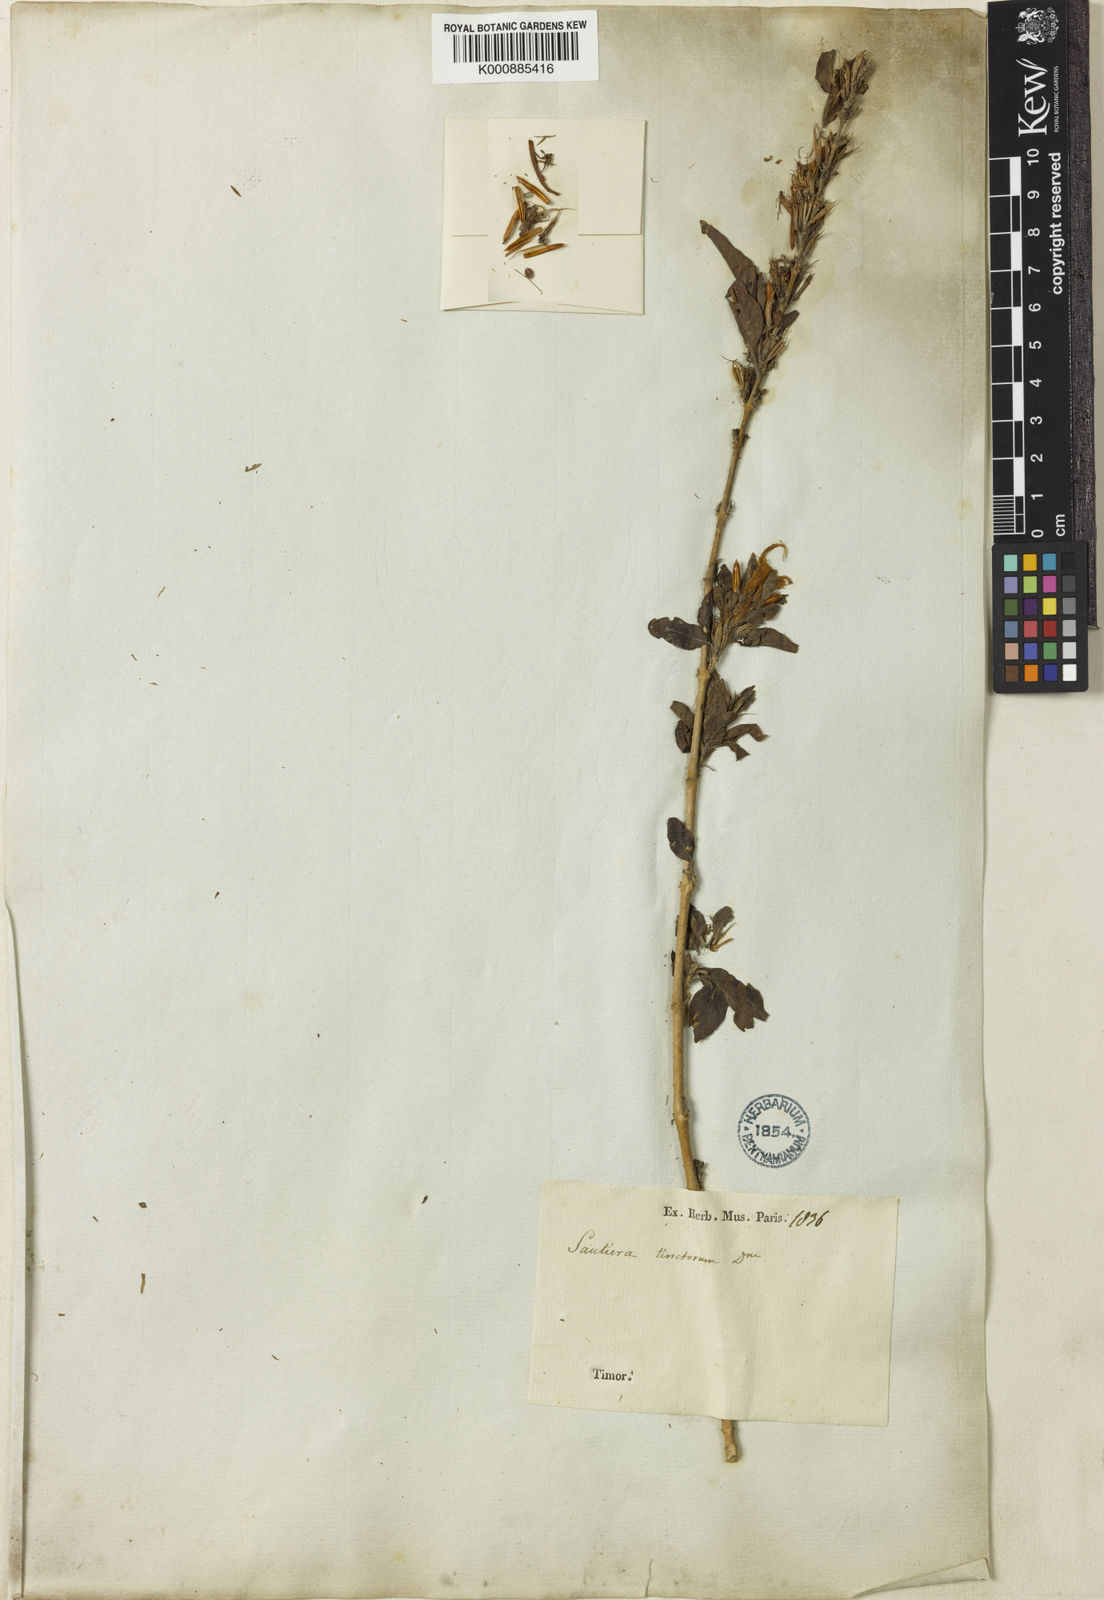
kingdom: Plantae
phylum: Tracheophyta
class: Magnoliopsida
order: Lamiales
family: Acanthaceae
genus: Dyschoriste
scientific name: Dyschoriste tinctorum
